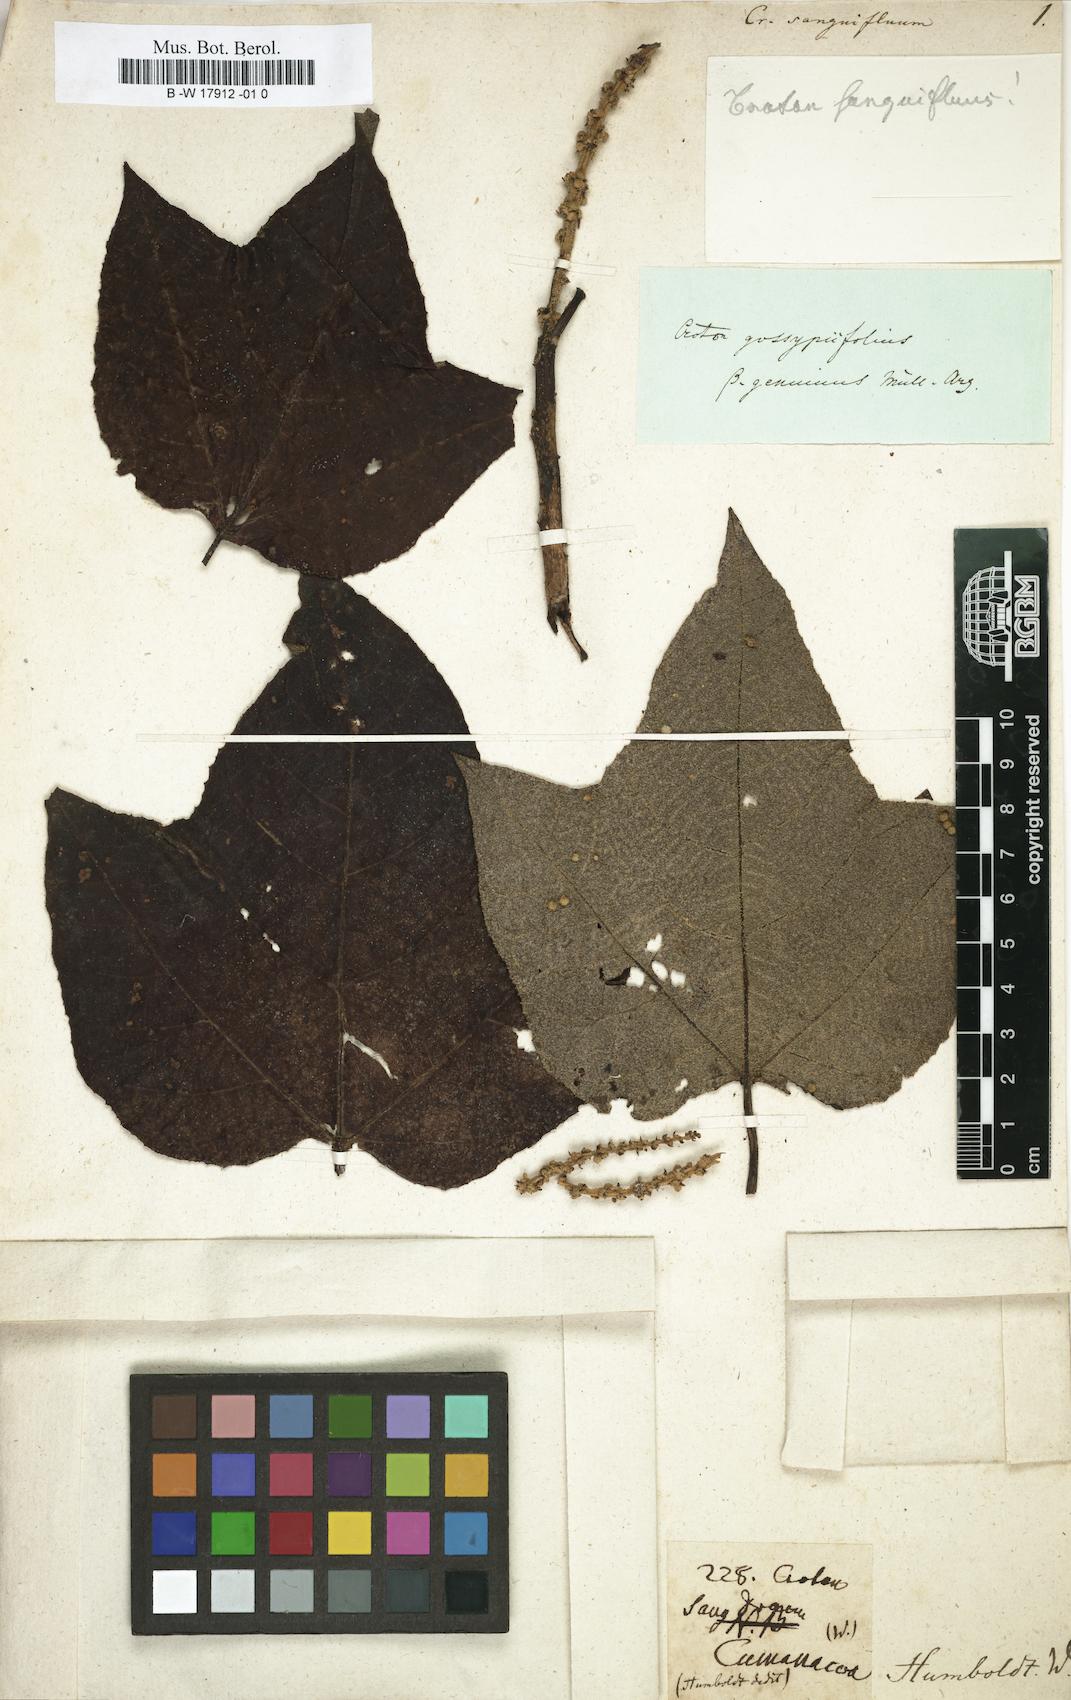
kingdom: Plantae
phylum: Tracheophyta
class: Magnoliopsida
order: Malpighiales
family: Euphorbiaceae
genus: Croton
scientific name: Croton gossypiifolius
